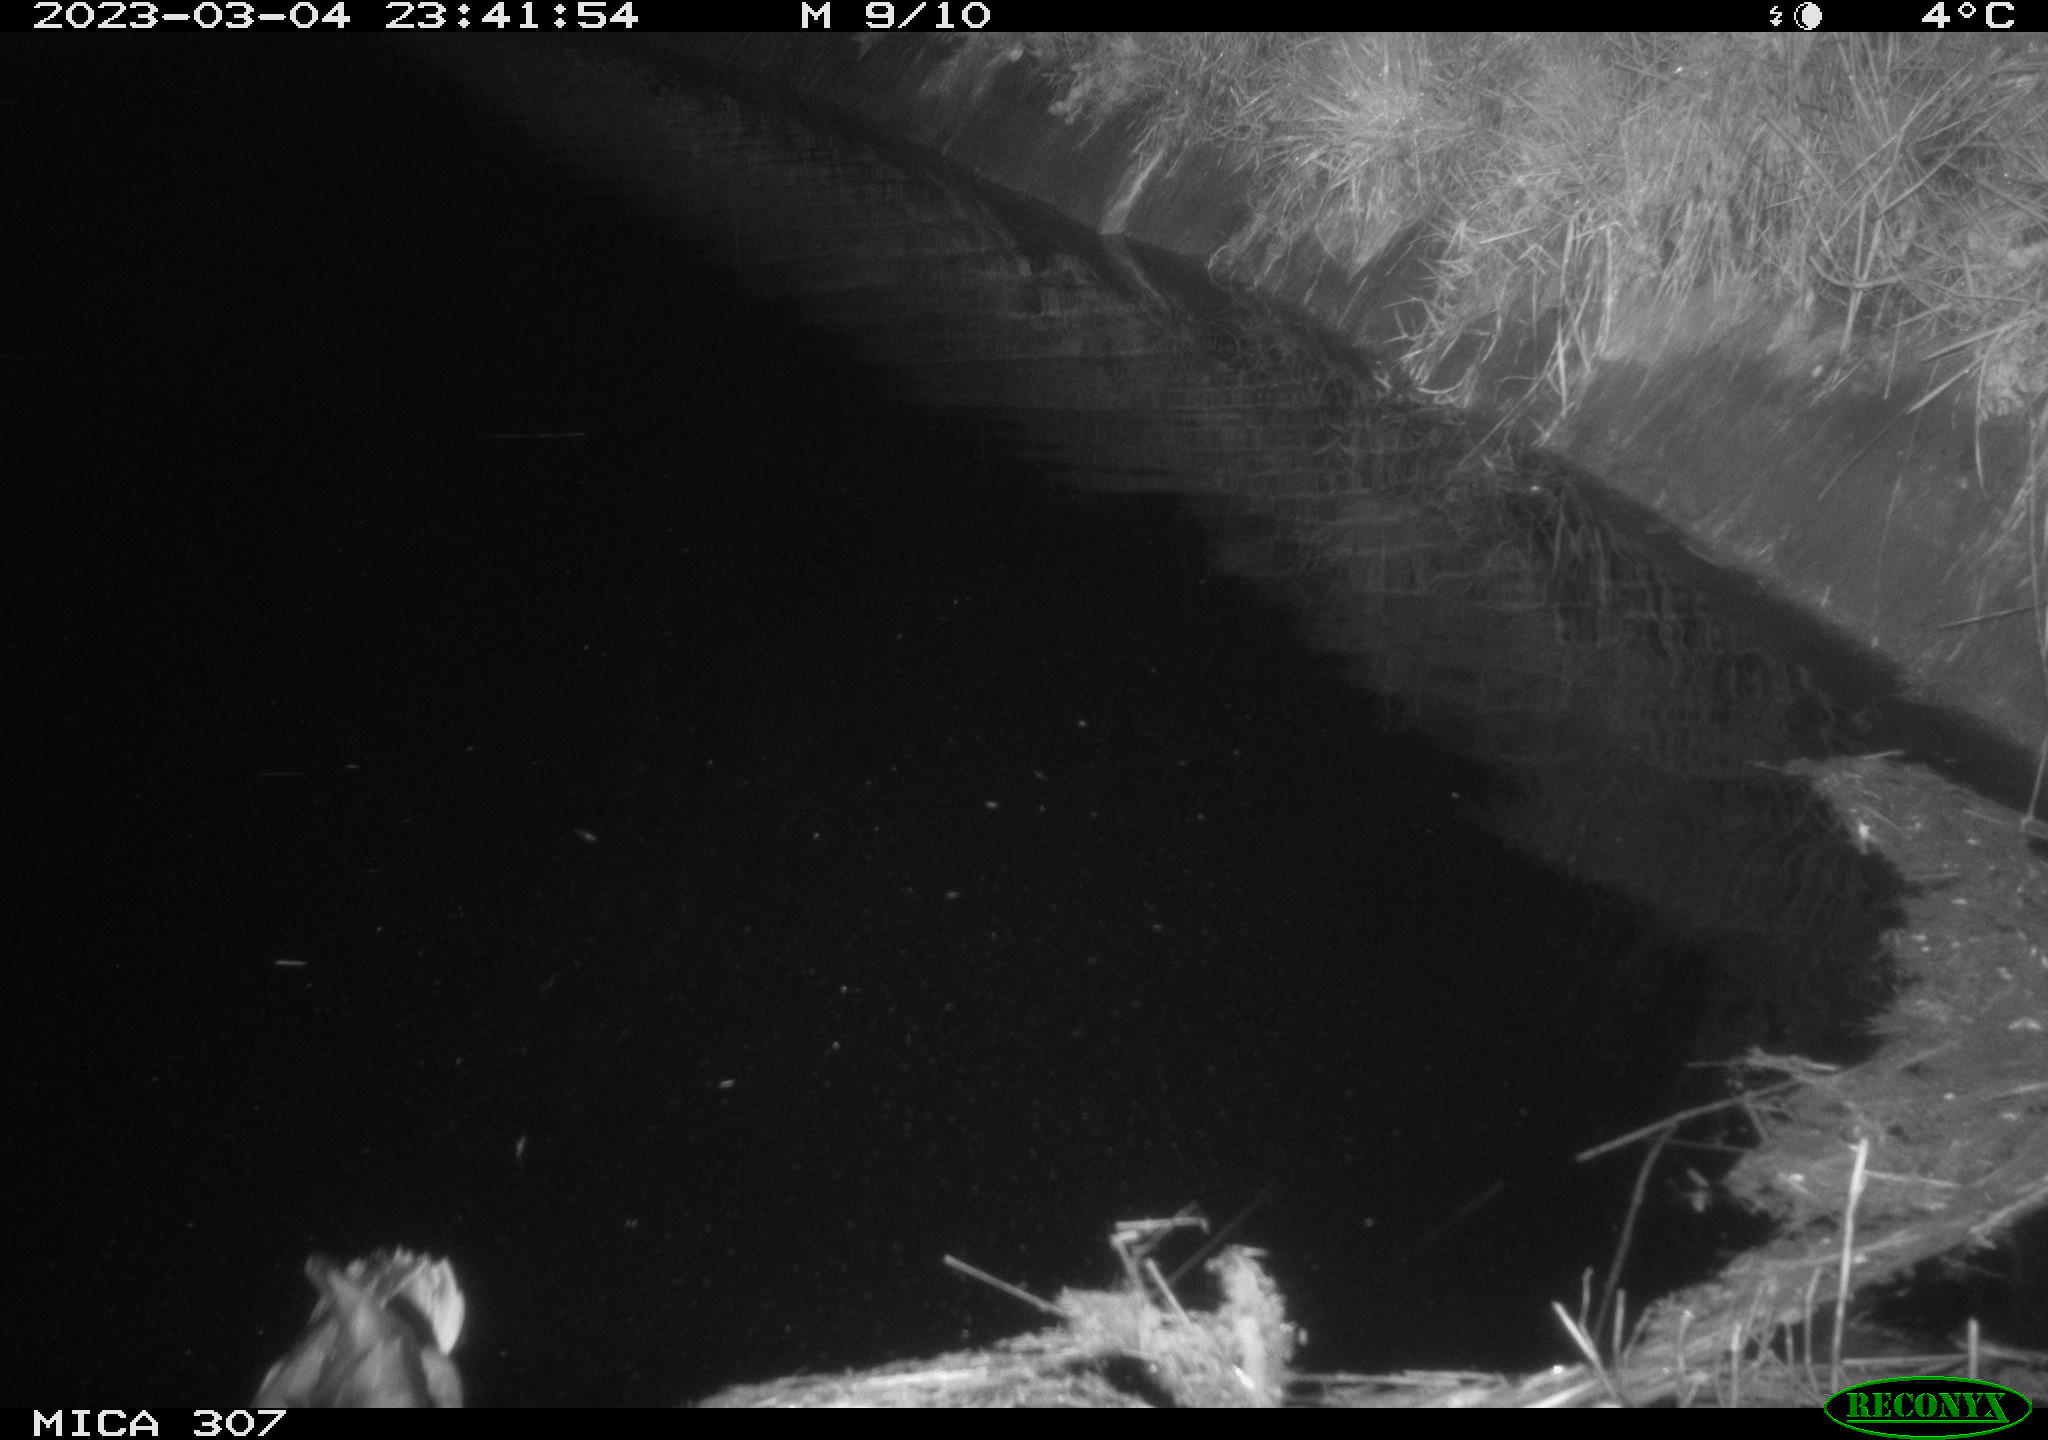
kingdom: Animalia
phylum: Chordata
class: Aves
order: Anseriformes
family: Anatidae
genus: Anas
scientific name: Anas
